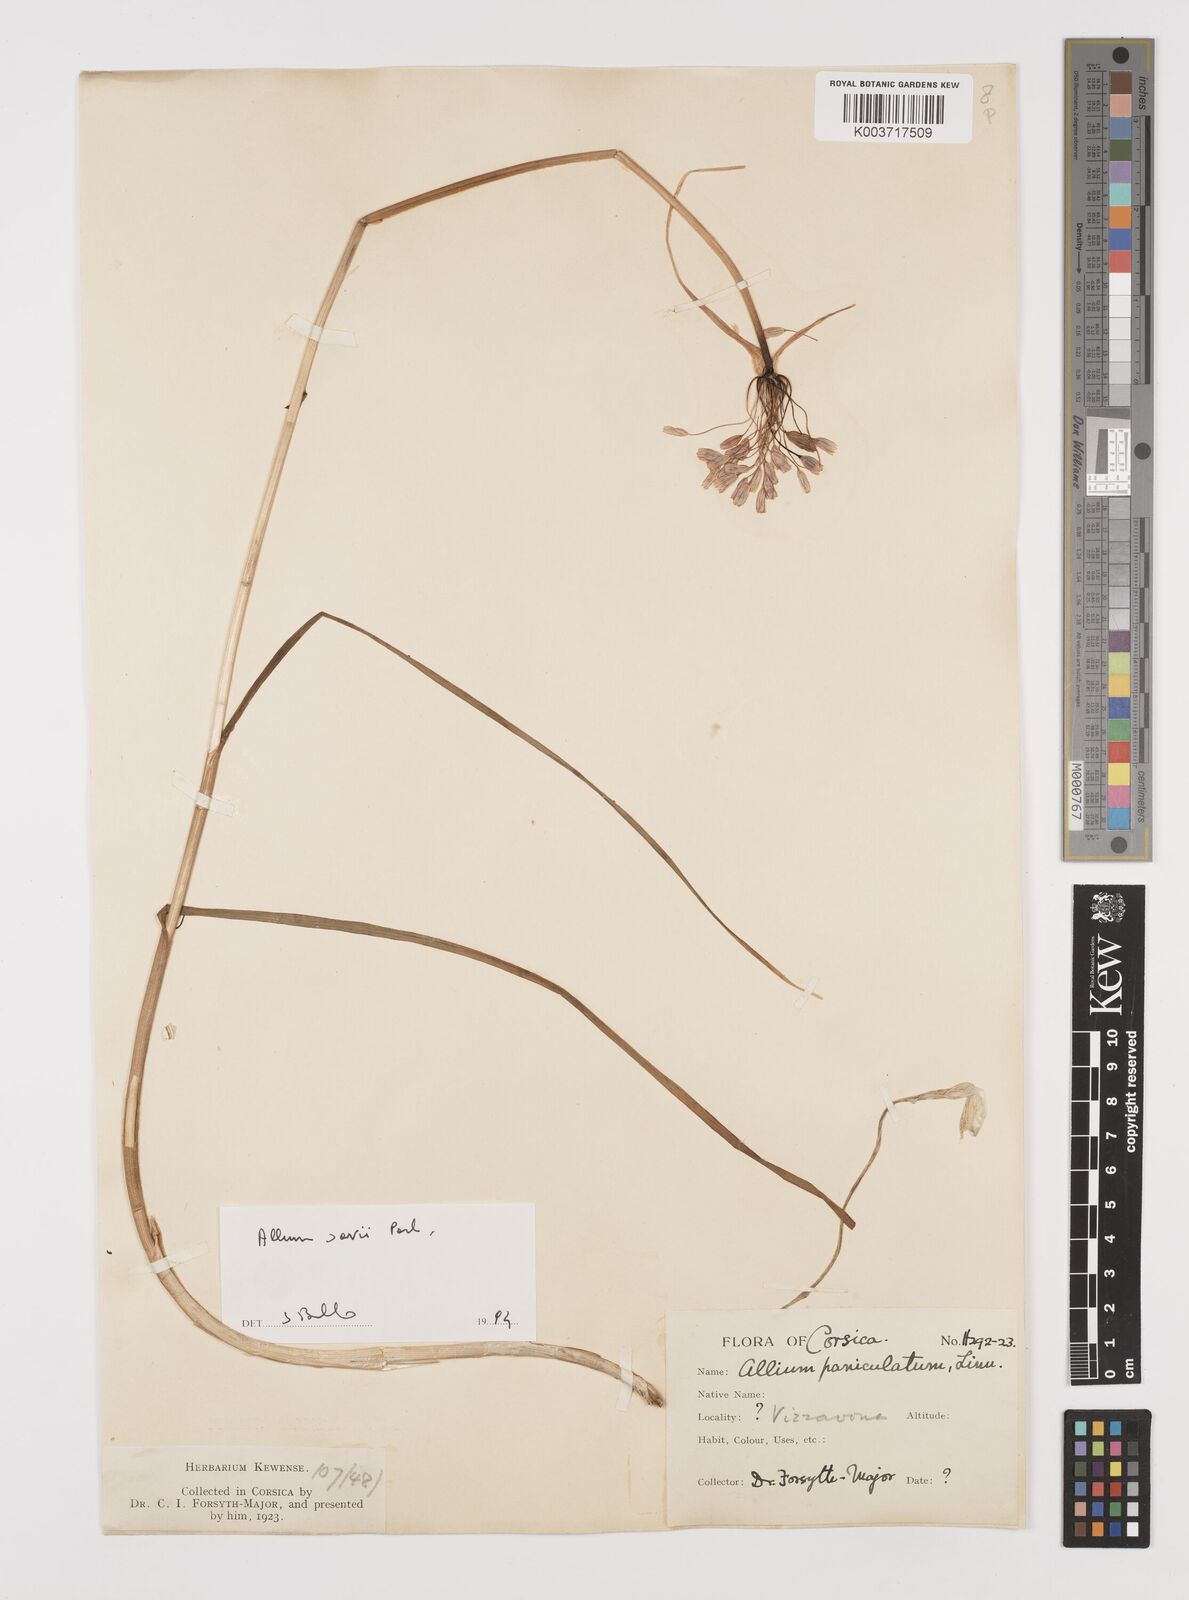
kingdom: Plantae
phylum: Tracheophyta
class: Liliopsida
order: Asparagales
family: Amaryllidaceae
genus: Allium
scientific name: Allium savii
